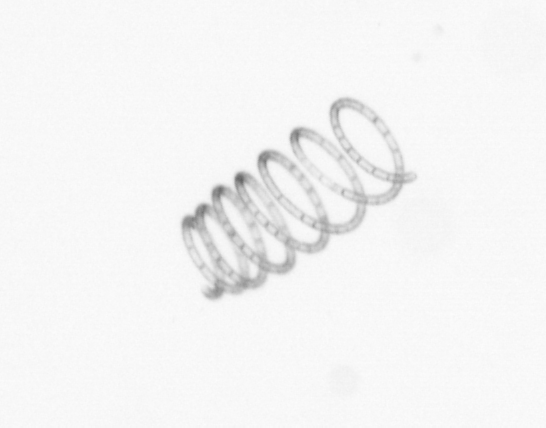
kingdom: Chromista
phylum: Ochrophyta
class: Bacillariophyceae
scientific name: Bacillariophyceae
